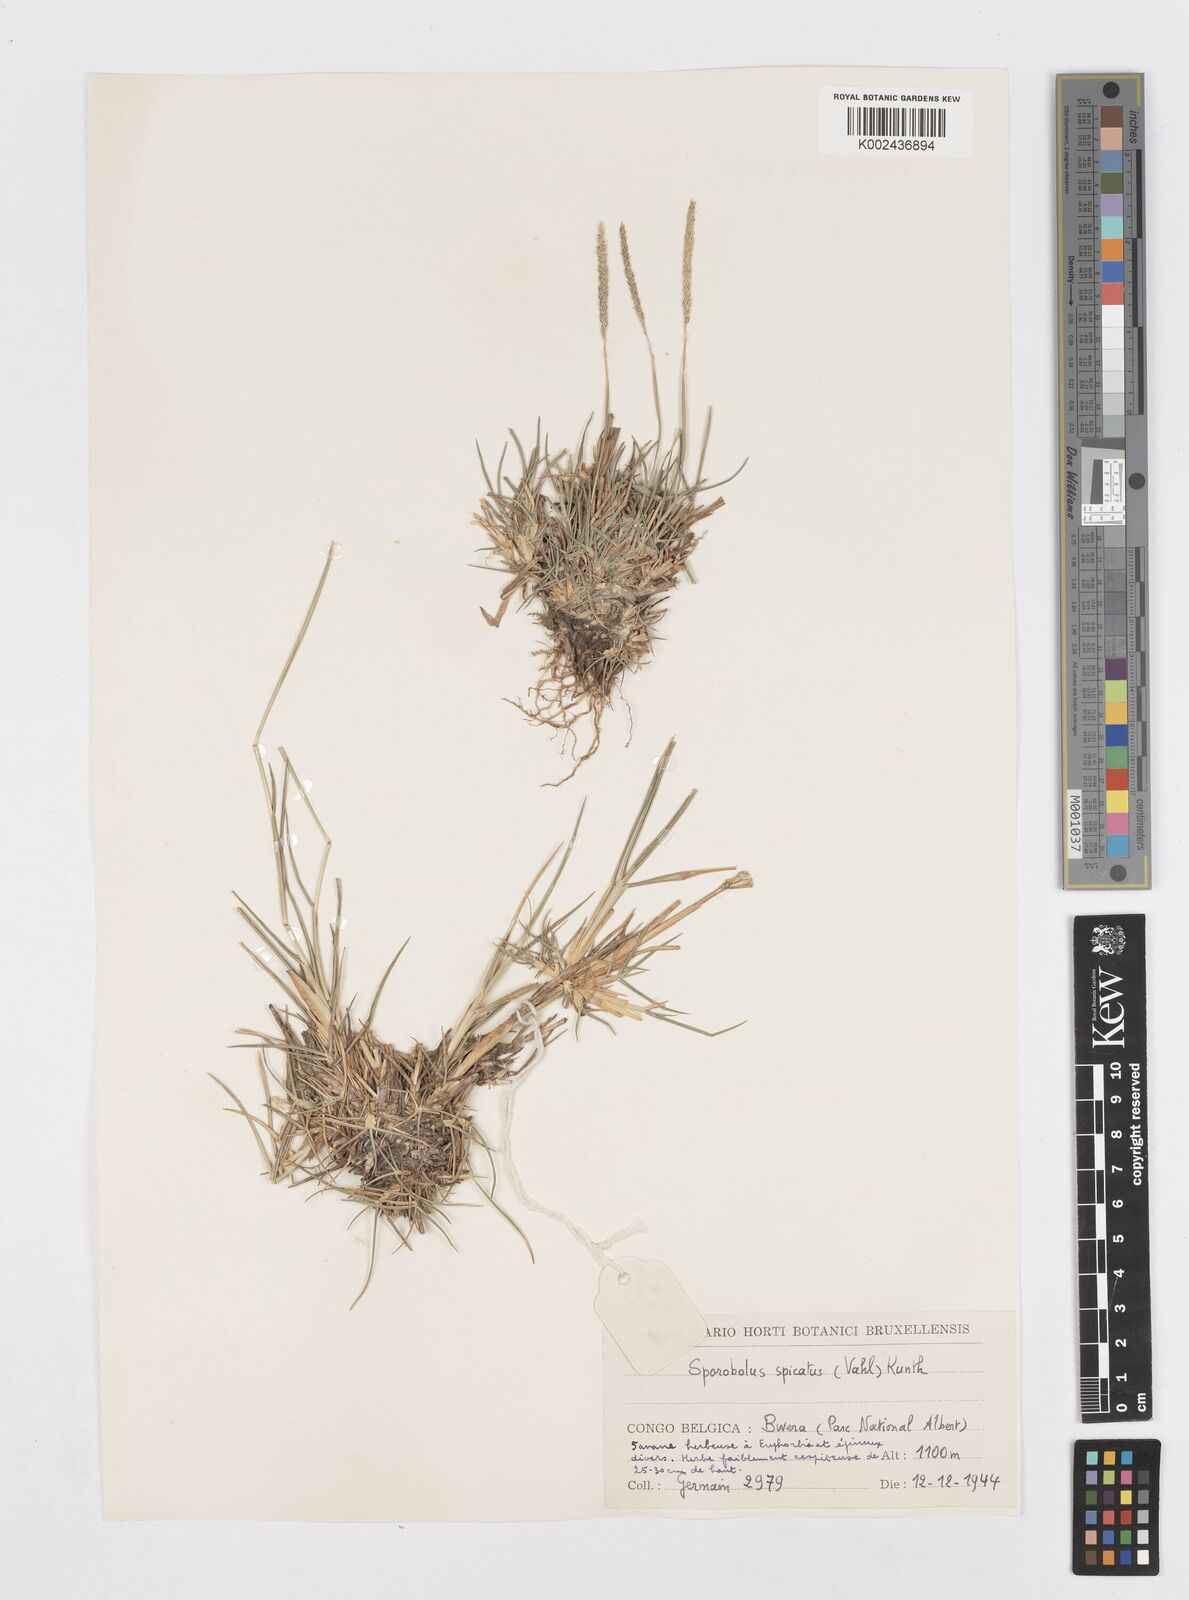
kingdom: Plantae
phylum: Tracheophyta
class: Liliopsida
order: Poales
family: Poaceae
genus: Sporobolus
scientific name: Sporobolus spicatus
